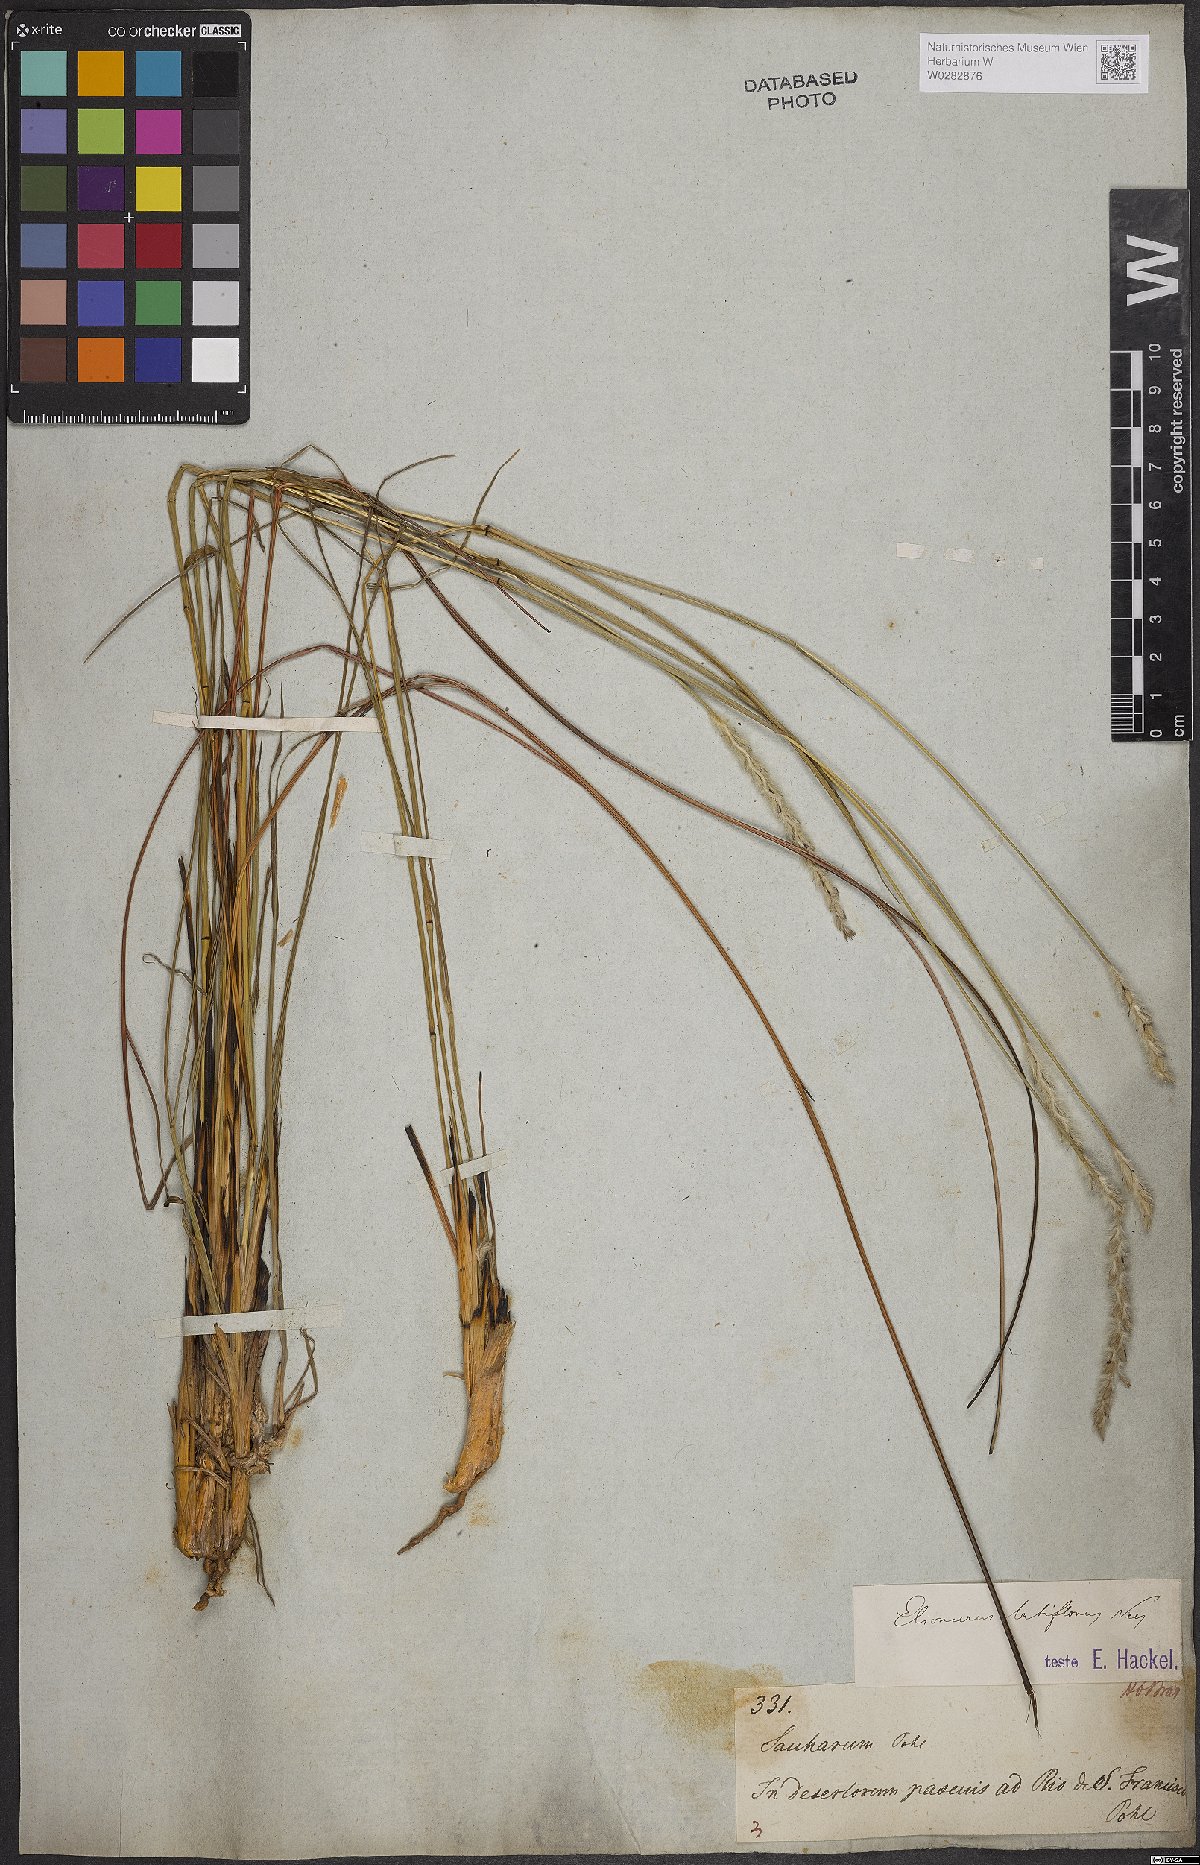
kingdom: Plantae
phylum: Tracheophyta
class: Liliopsida
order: Poales
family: Poaceae
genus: Elionurus
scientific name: Elionurus muticus
